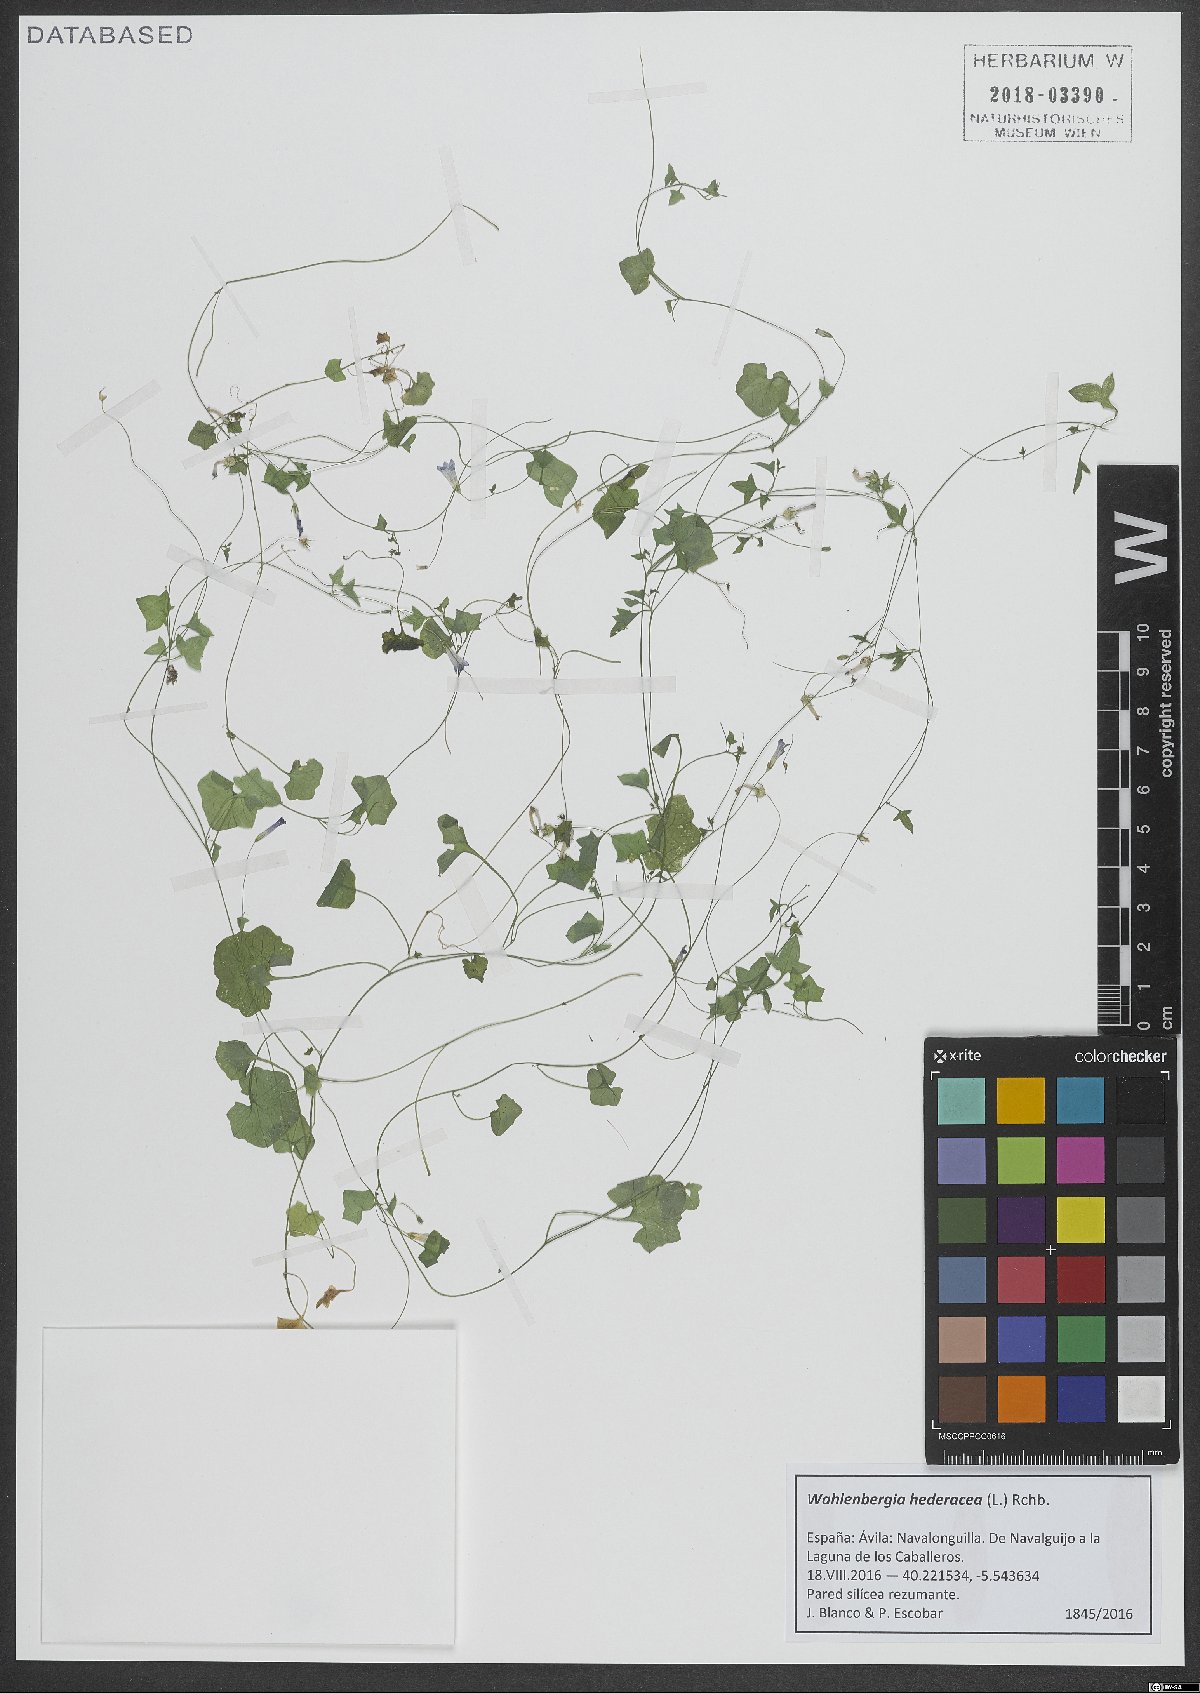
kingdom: Plantae
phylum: Tracheophyta
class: Magnoliopsida
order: Asterales
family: Campanulaceae
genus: Hesperocodon
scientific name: Hesperocodon hederaceus
